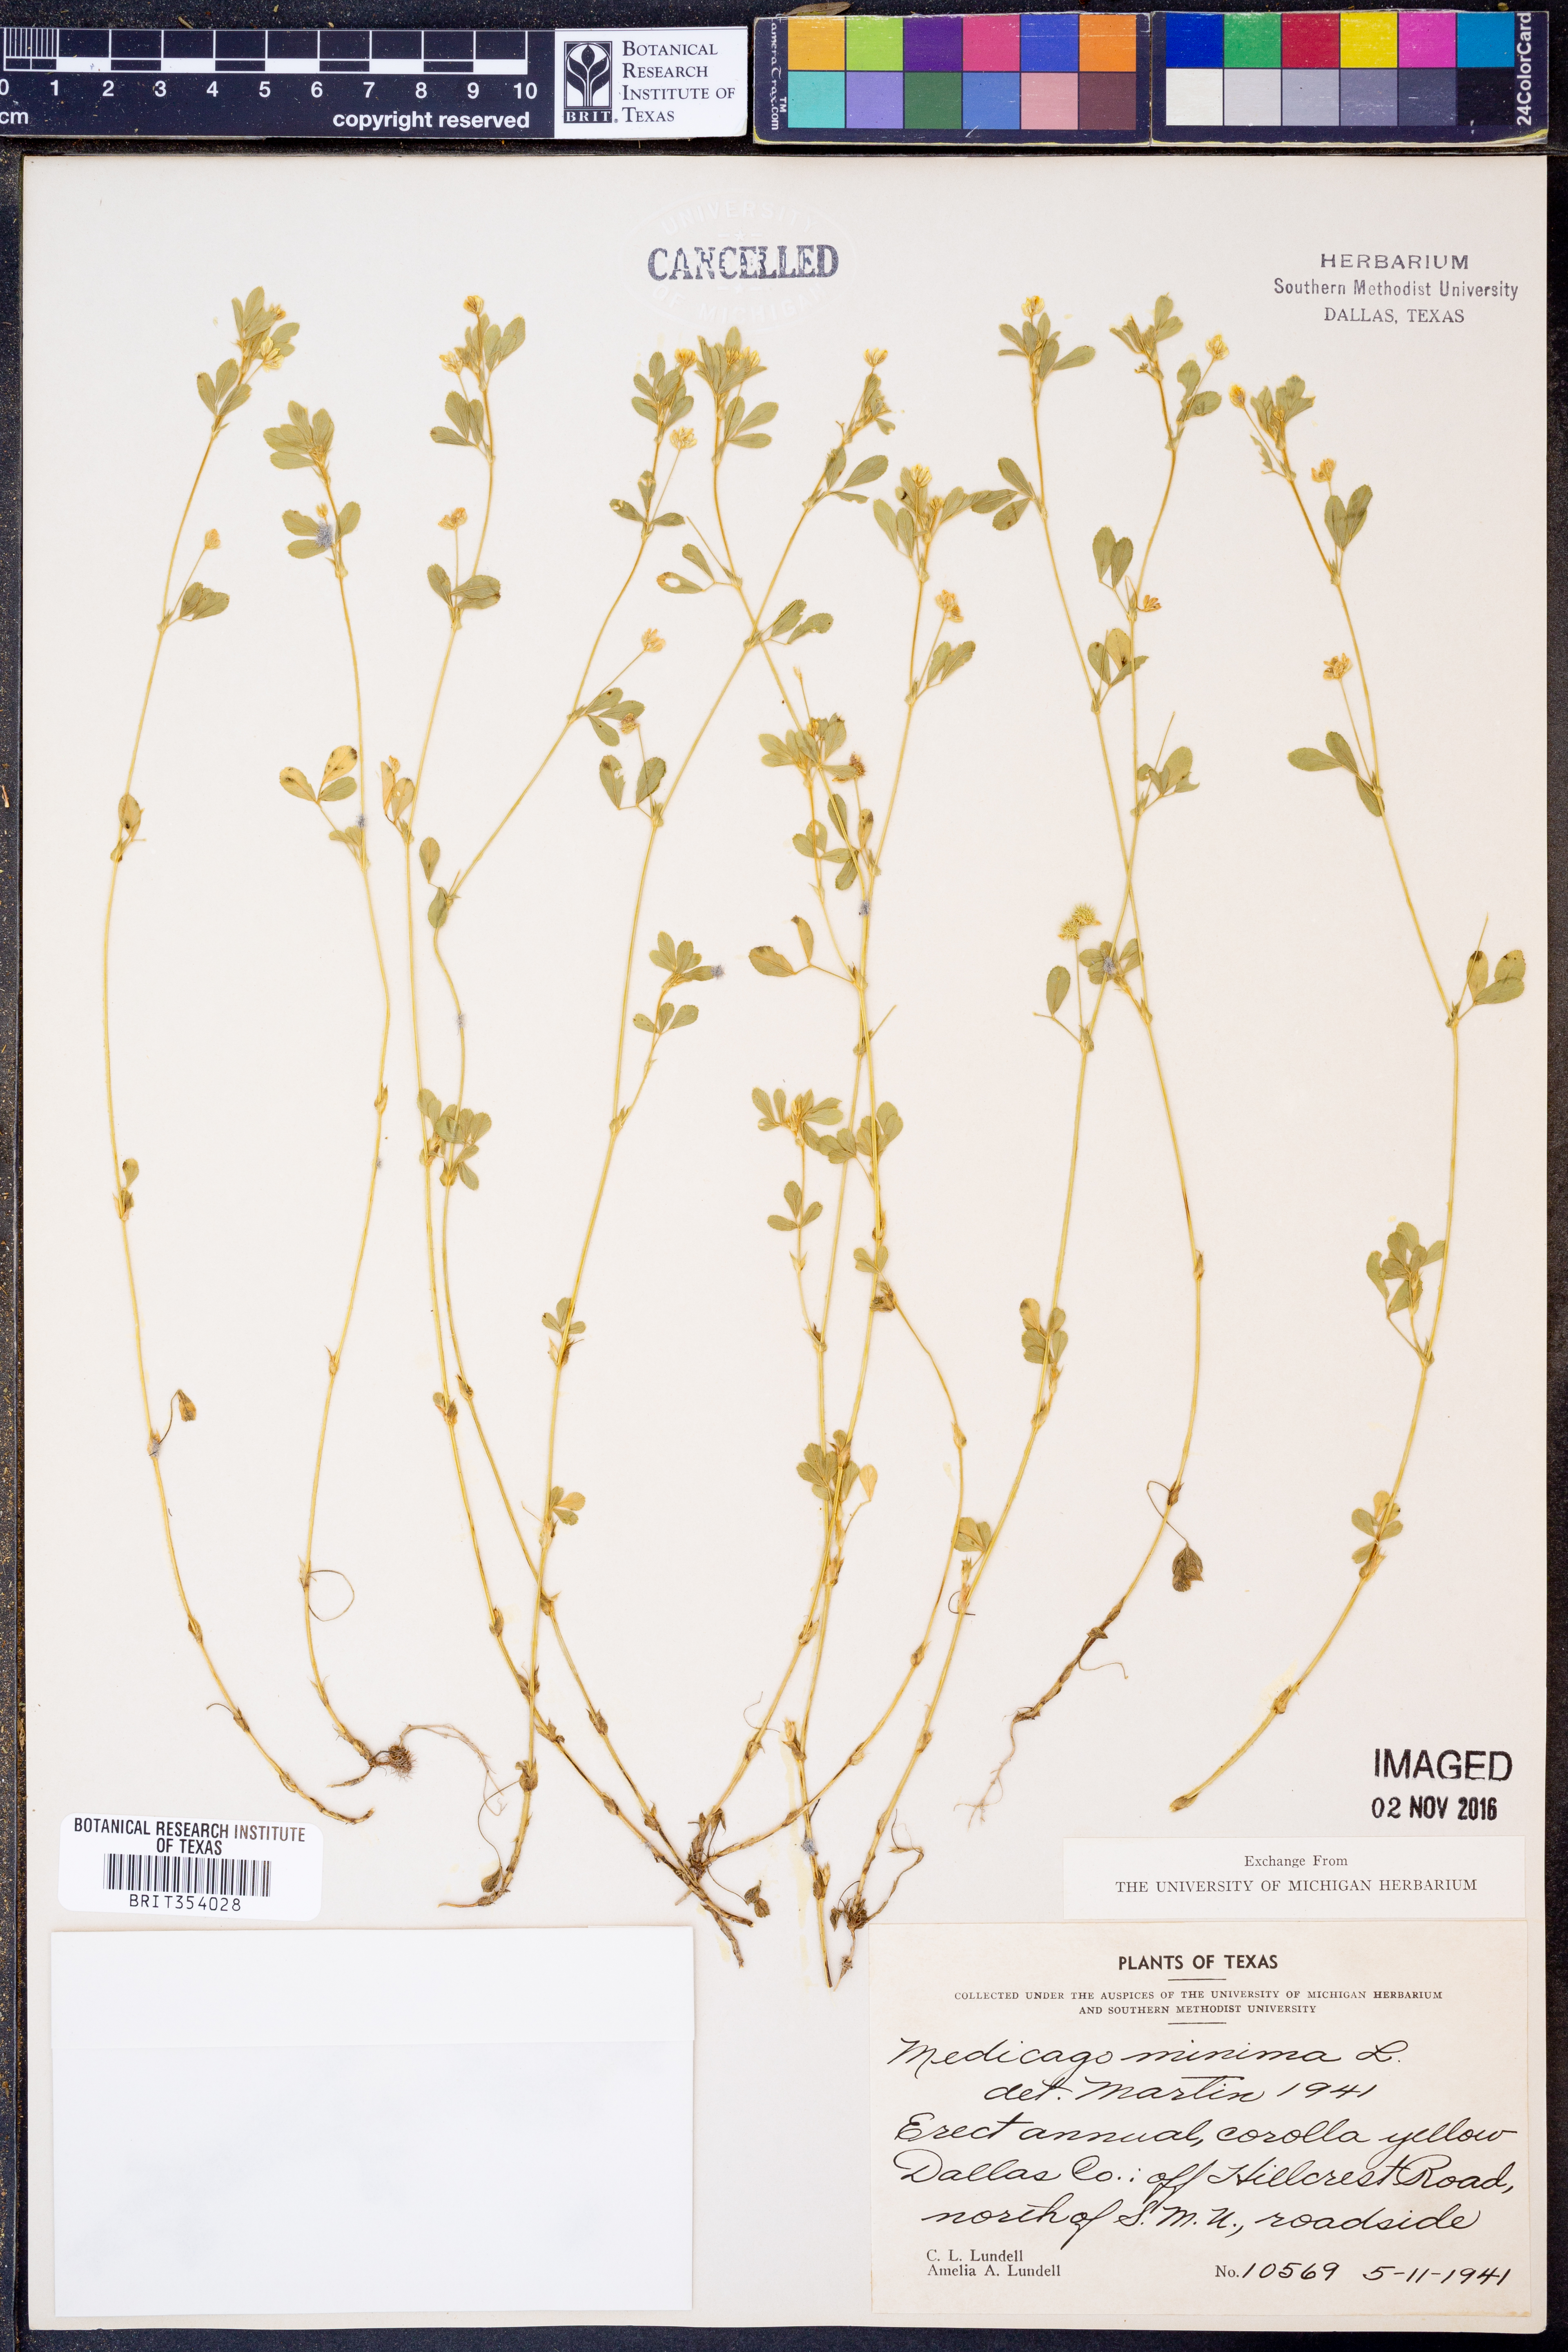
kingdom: Plantae
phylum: Tracheophyta
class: Magnoliopsida
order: Fabales
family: Fabaceae
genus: Medicago
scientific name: Medicago minima
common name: Little bur-clover
